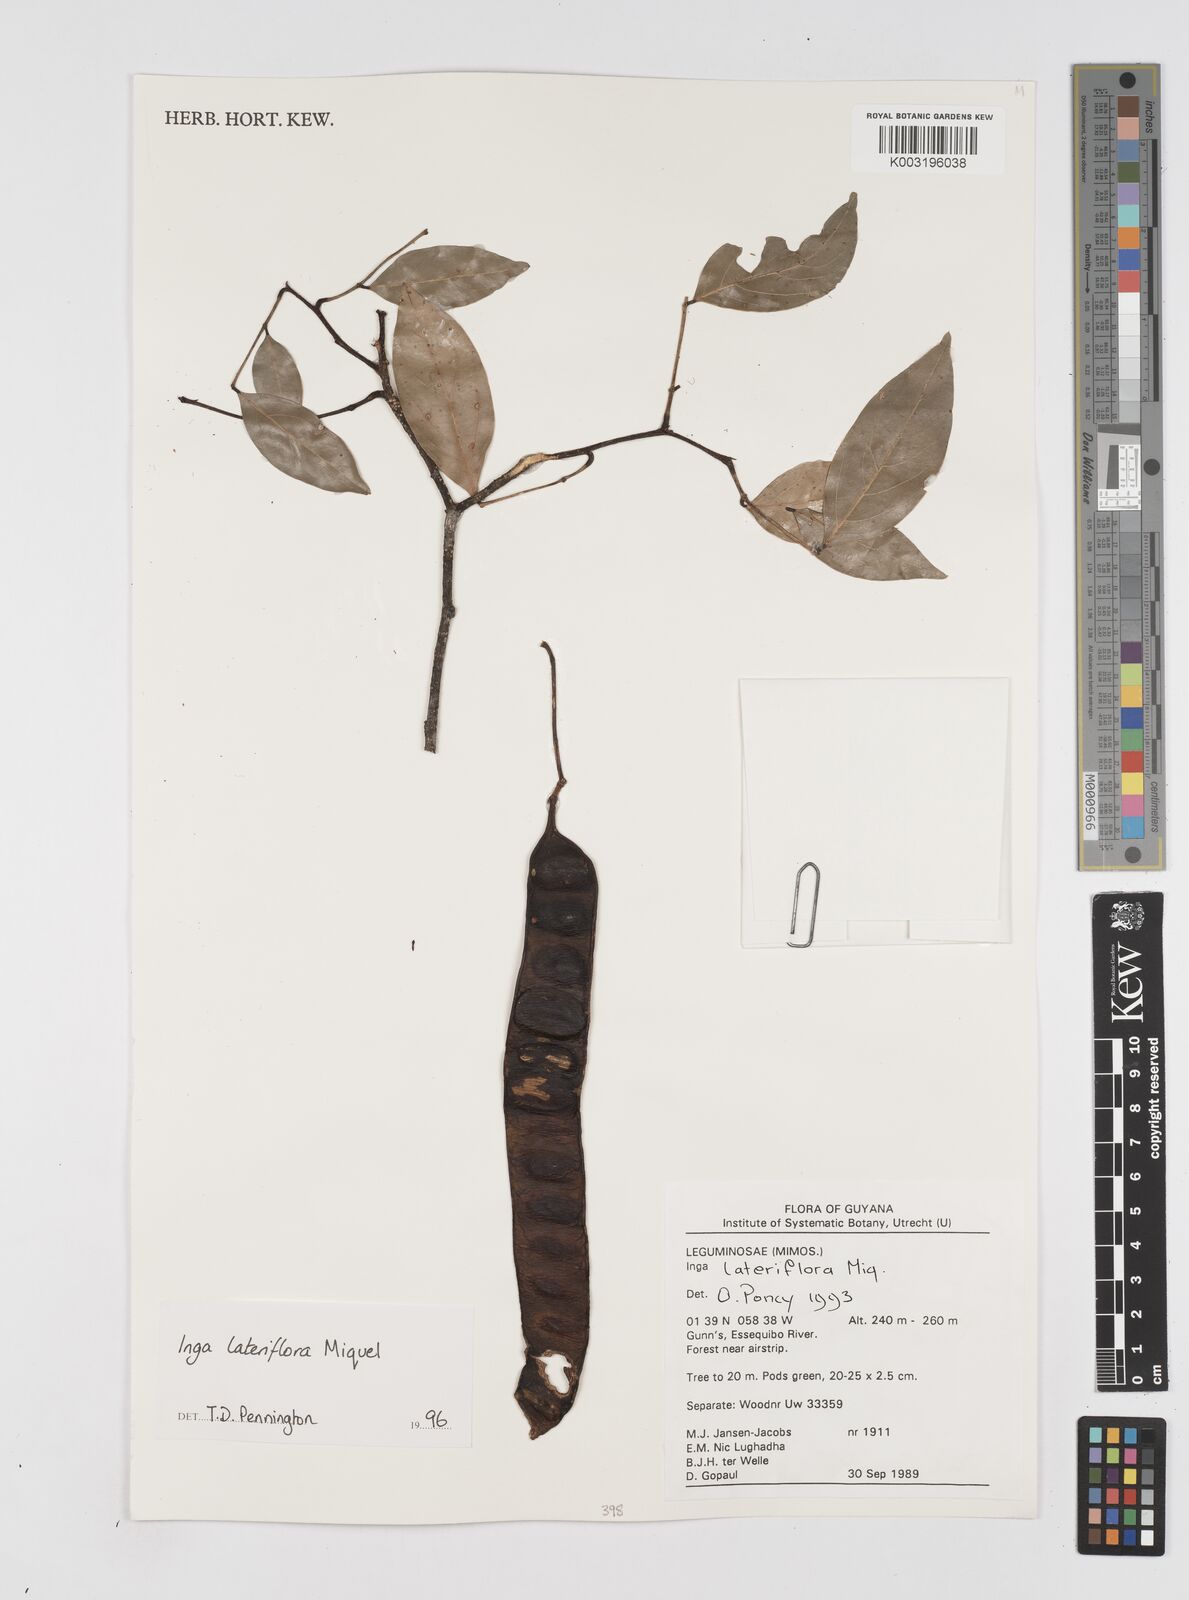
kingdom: Plantae
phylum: Tracheophyta
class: Magnoliopsida
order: Fabales
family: Fabaceae
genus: Inga
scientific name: Inga lateriflora
